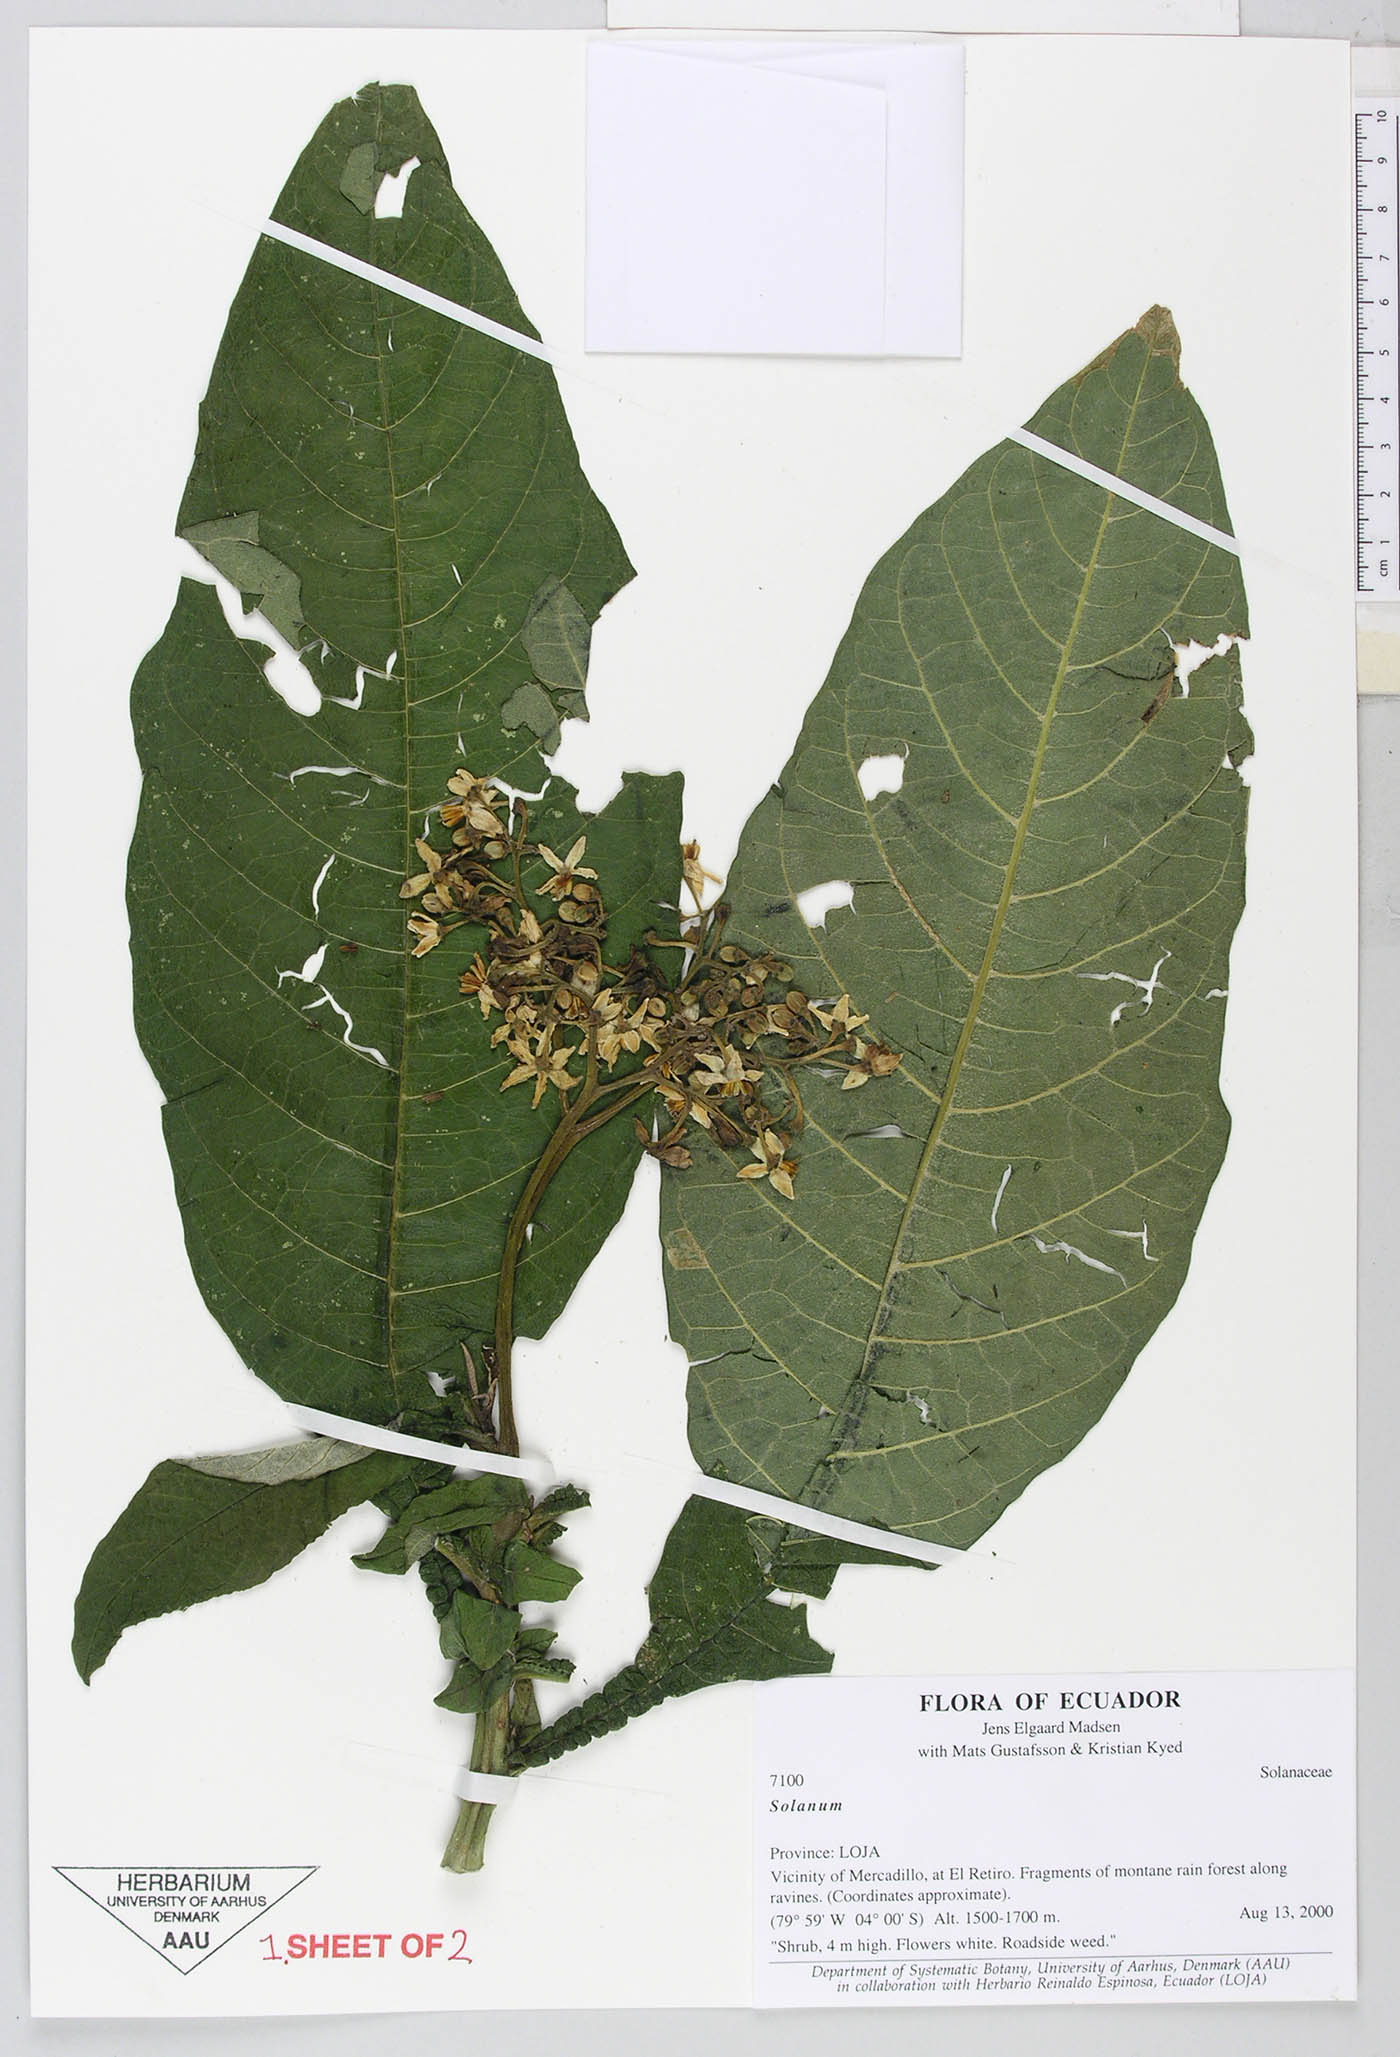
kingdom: Plantae
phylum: Tracheophyta
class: Magnoliopsida
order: Solanales
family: Solanaceae
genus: Solanum
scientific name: Solanum oblongifolium
